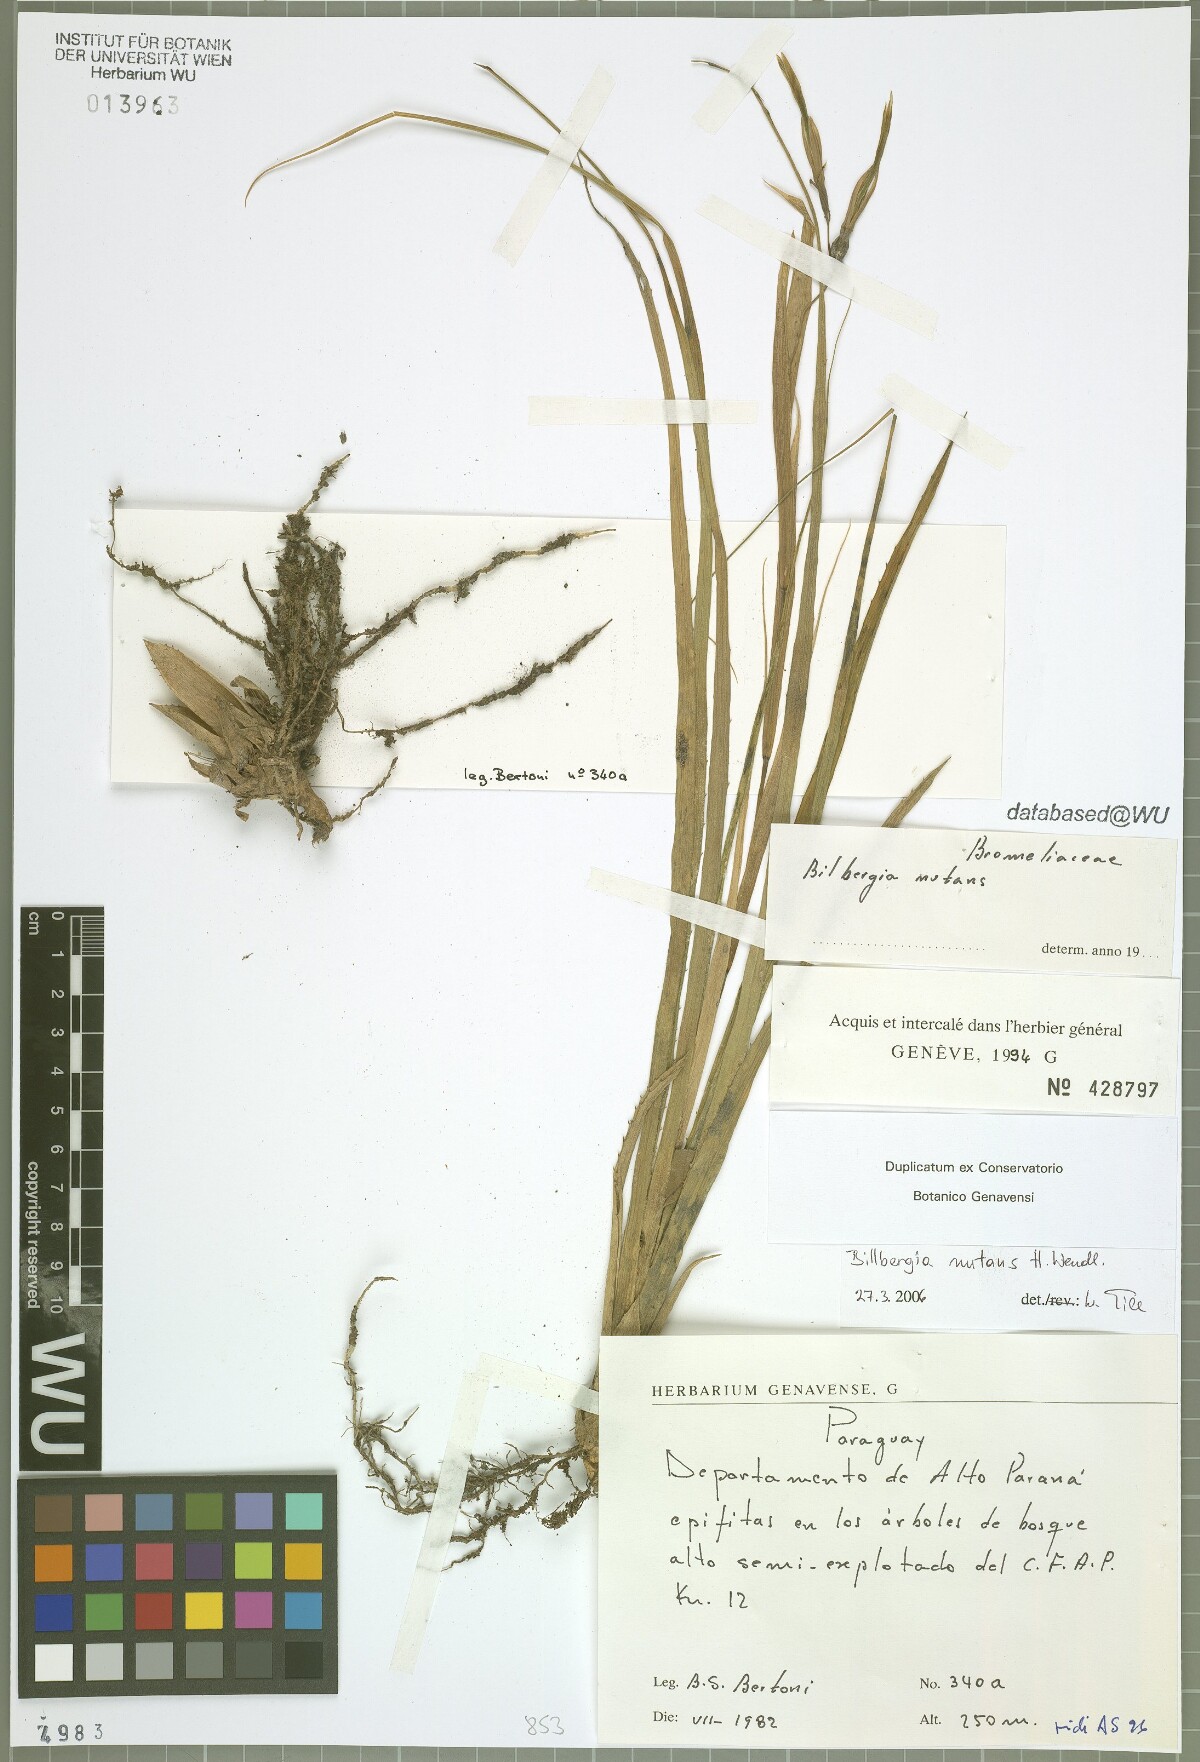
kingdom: Plantae
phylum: Tracheophyta
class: Liliopsida
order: Poales
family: Bromeliaceae
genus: Billbergia
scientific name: Billbergia nutans
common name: Friendship-plant
